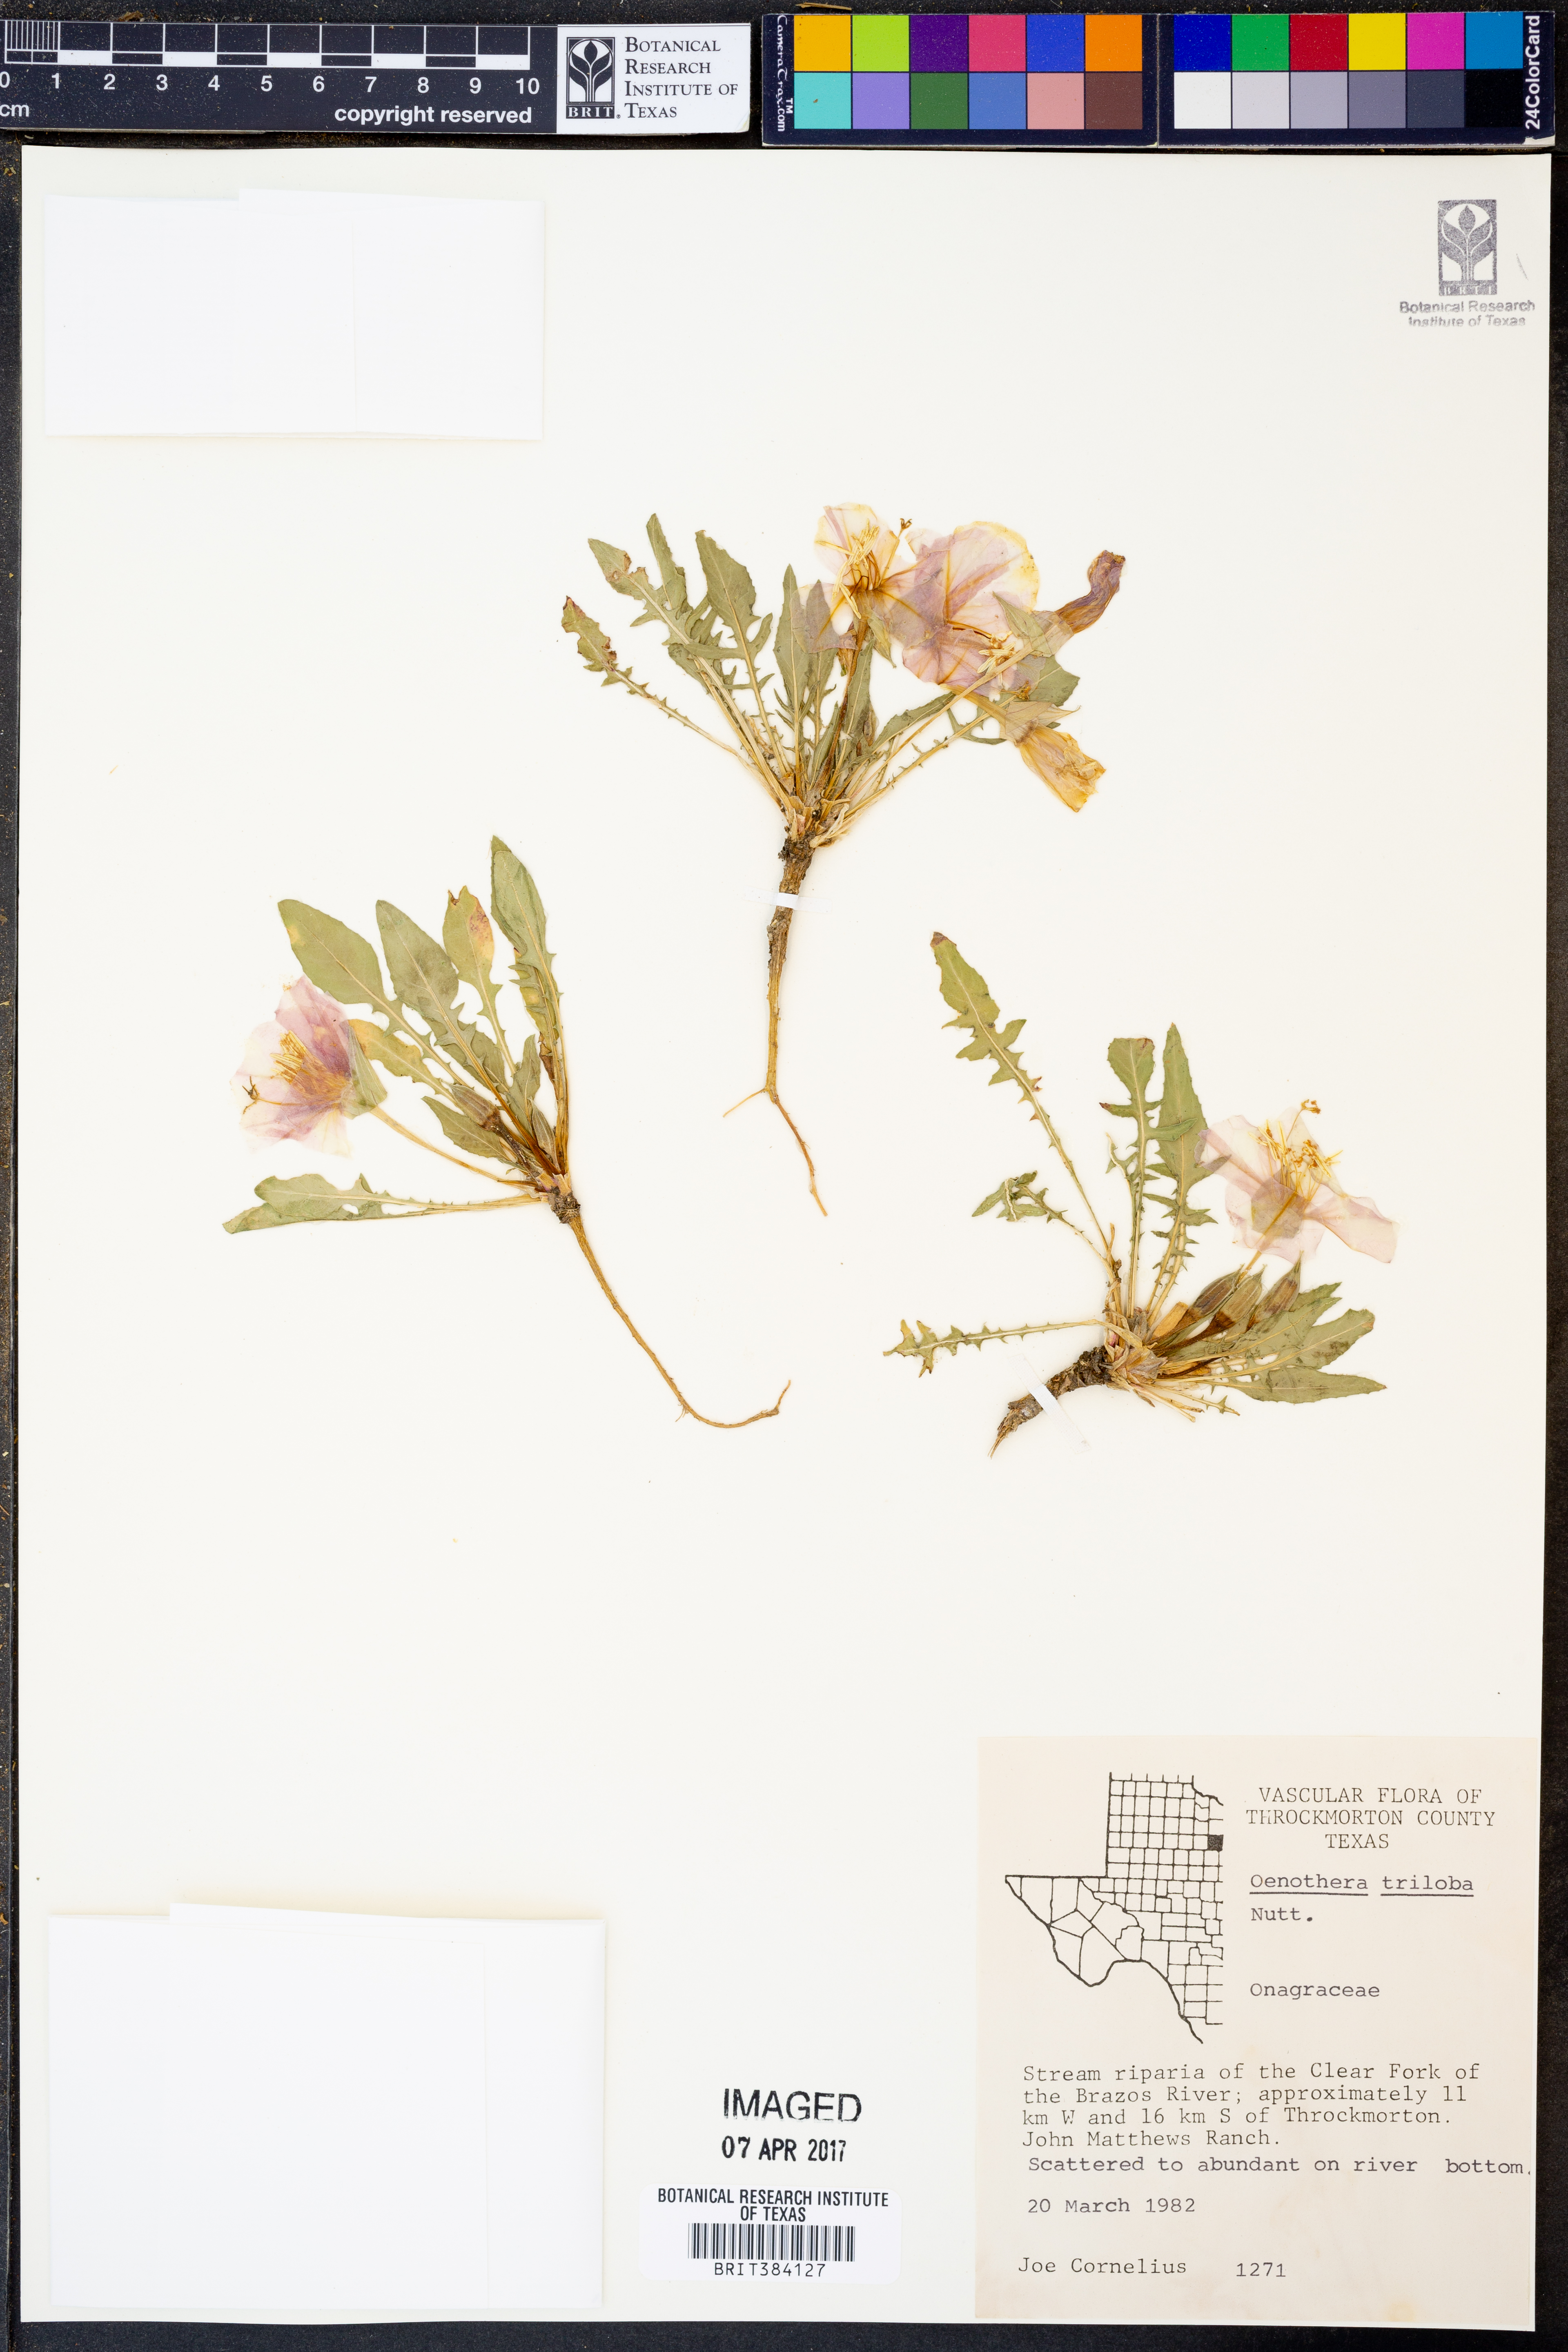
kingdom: Plantae
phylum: Tracheophyta
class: Magnoliopsida
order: Myrtales
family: Onagraceae
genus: Oenothera
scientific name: Oenothera triloba
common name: Sessile evening-primrose
